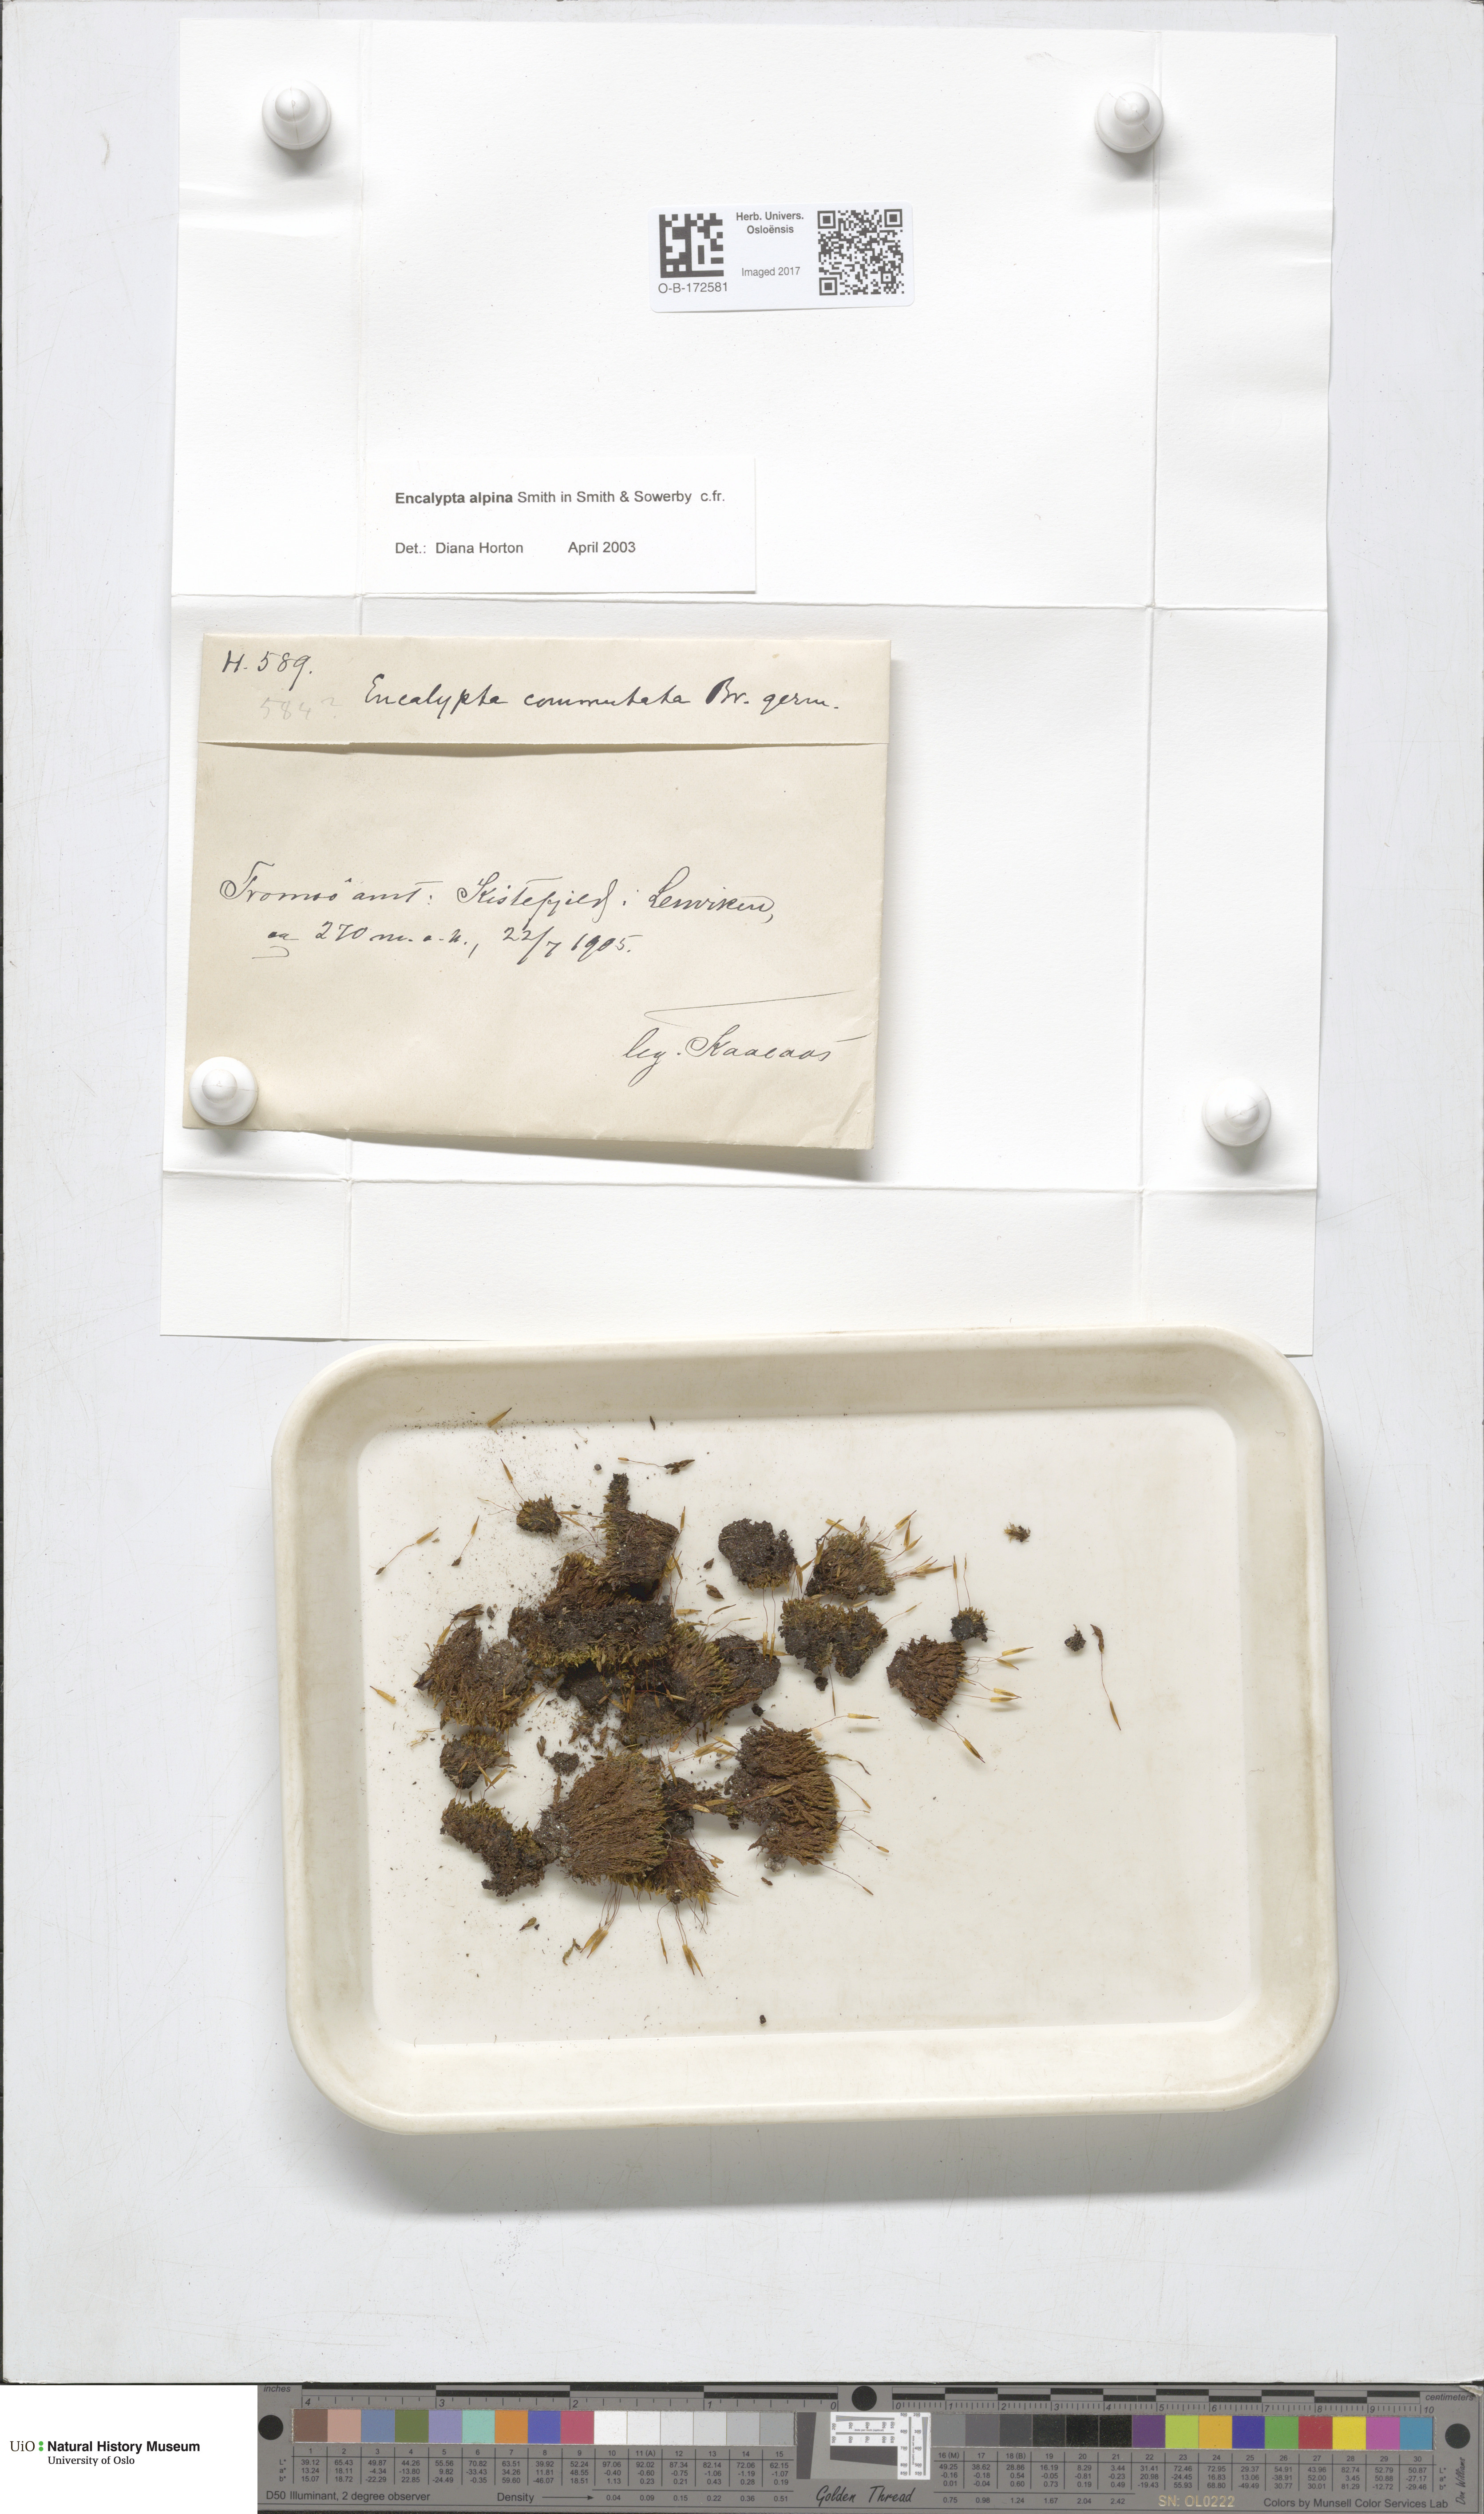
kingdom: Plantae
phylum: Bryophyta
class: Bryopsida
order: Encalyptales
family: Encalyptaceae
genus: Encalypta
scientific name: Encalypta alpina
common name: Alpine extinguisher-moss
